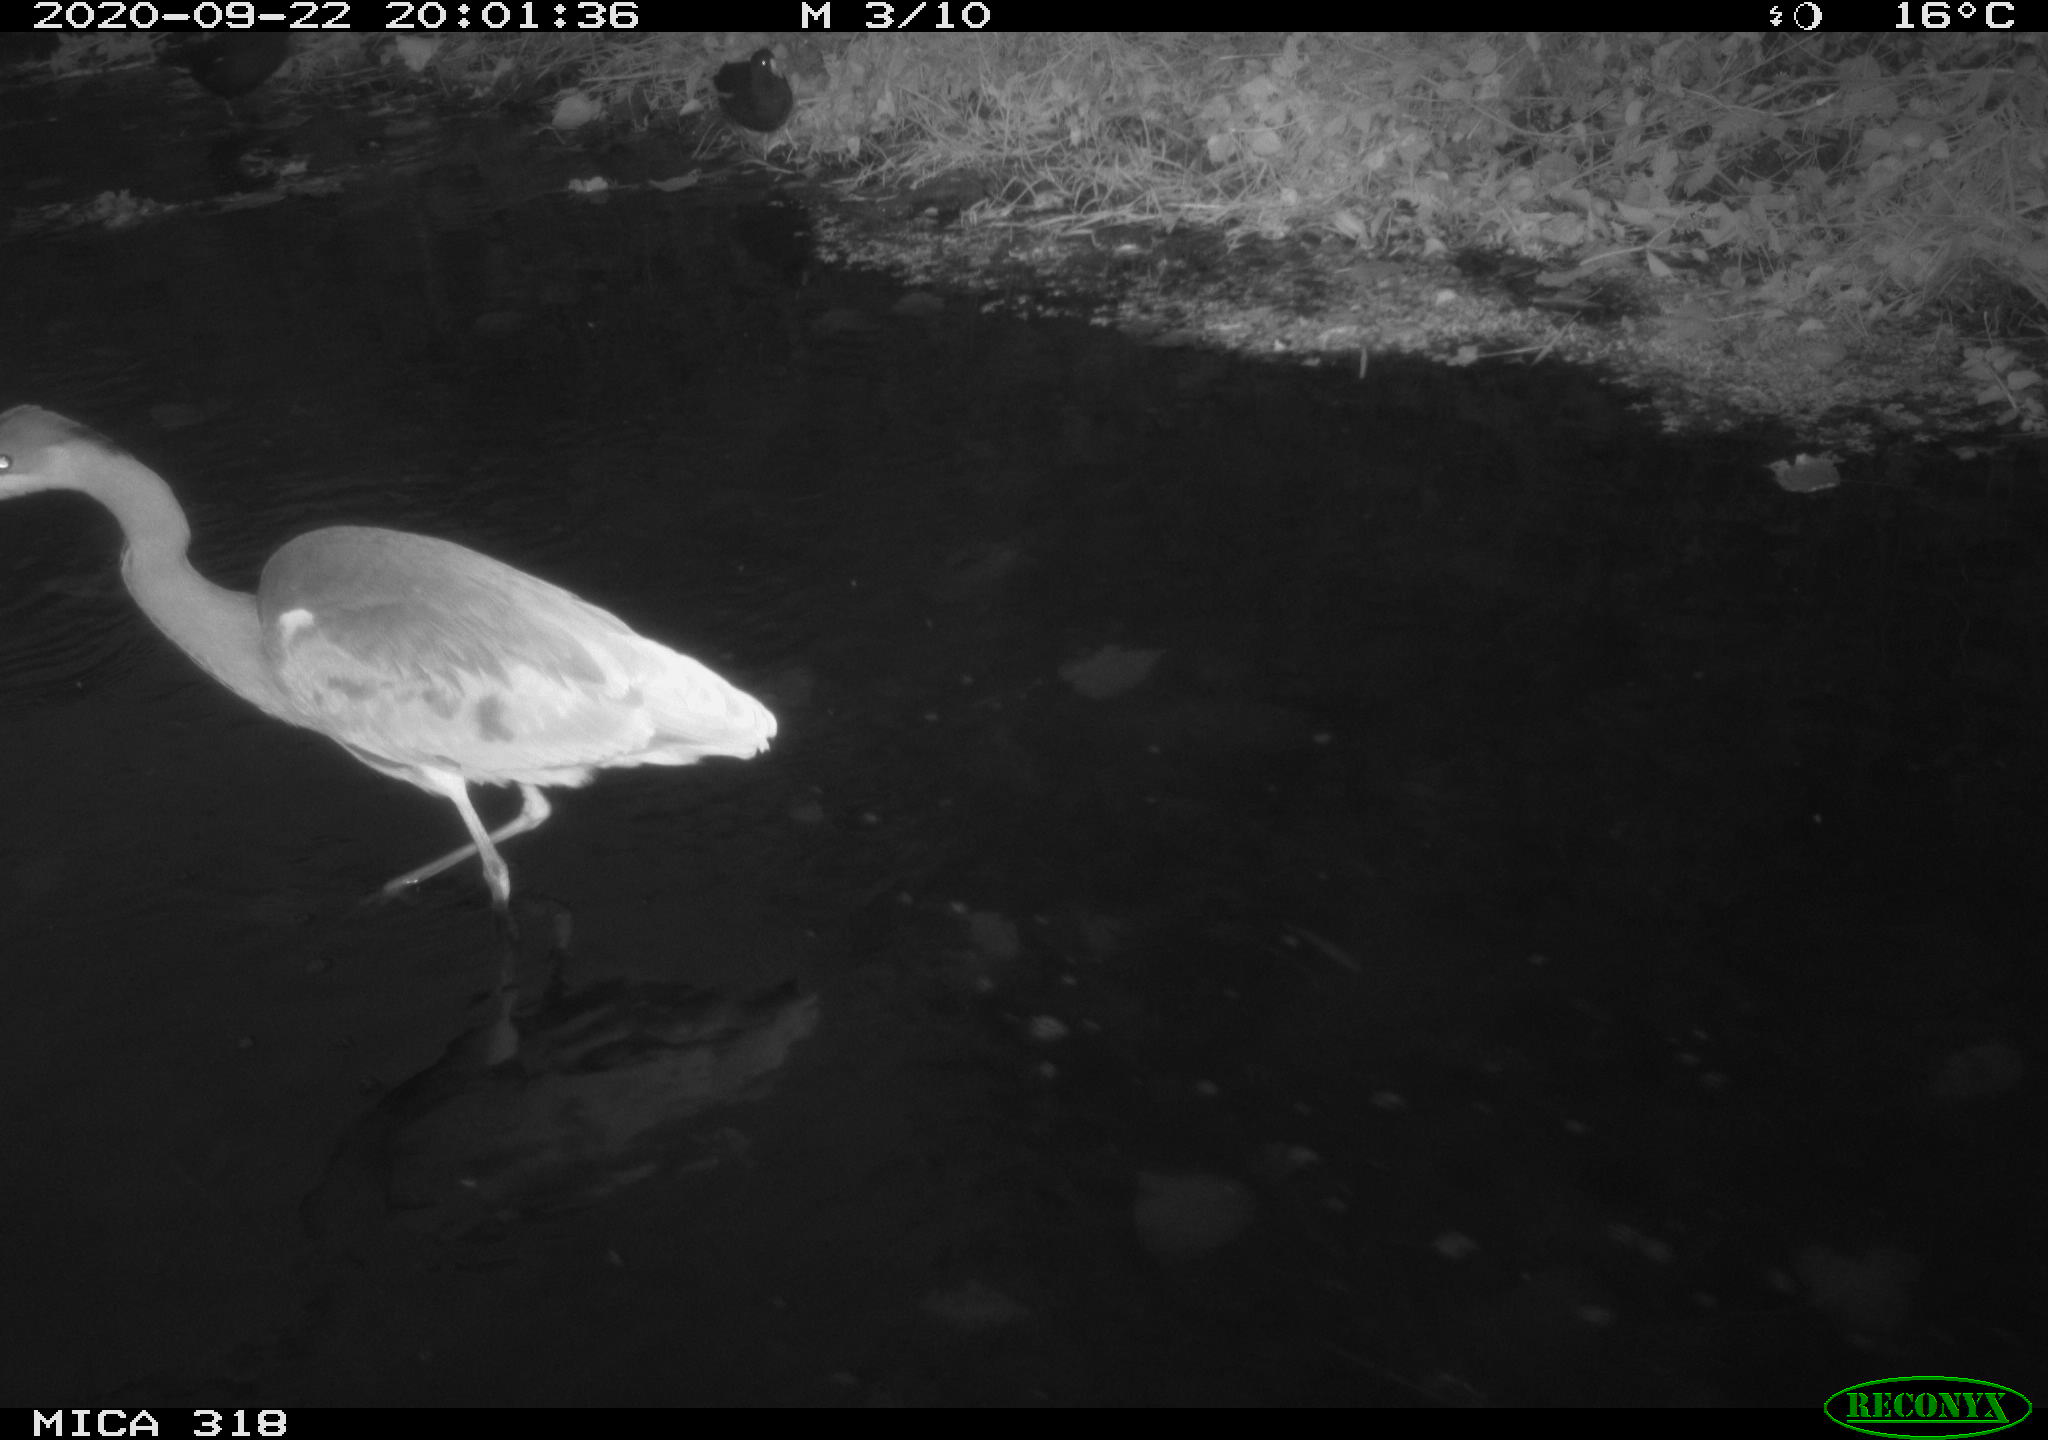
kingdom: Animalia
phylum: Chordata
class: Aves
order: Gruiformes
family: Rallidae
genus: Gallinula
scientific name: Gallinula chloropus
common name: Common moorhen
